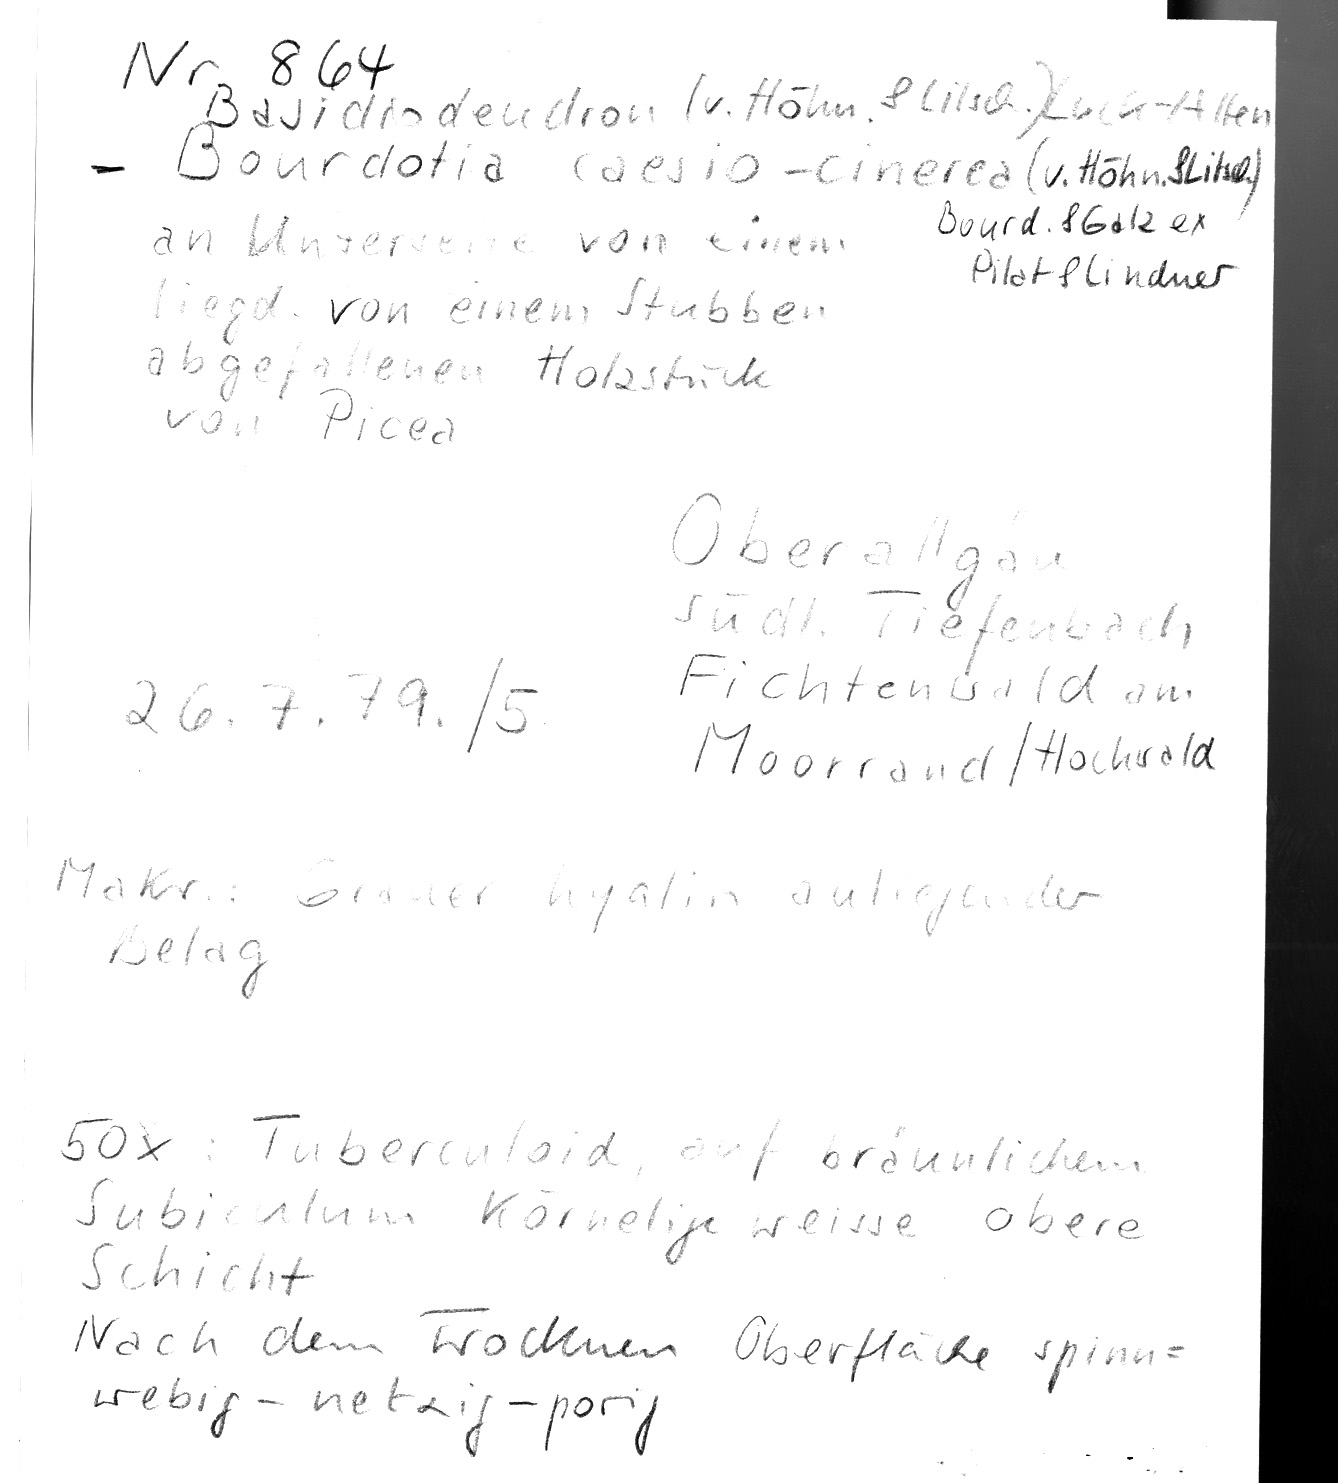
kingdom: Fungi
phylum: Basidiomycota
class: Agaricomycetes
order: Auriculariales
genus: Basidiodendron
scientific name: Basidiodendron caesiocinereum
